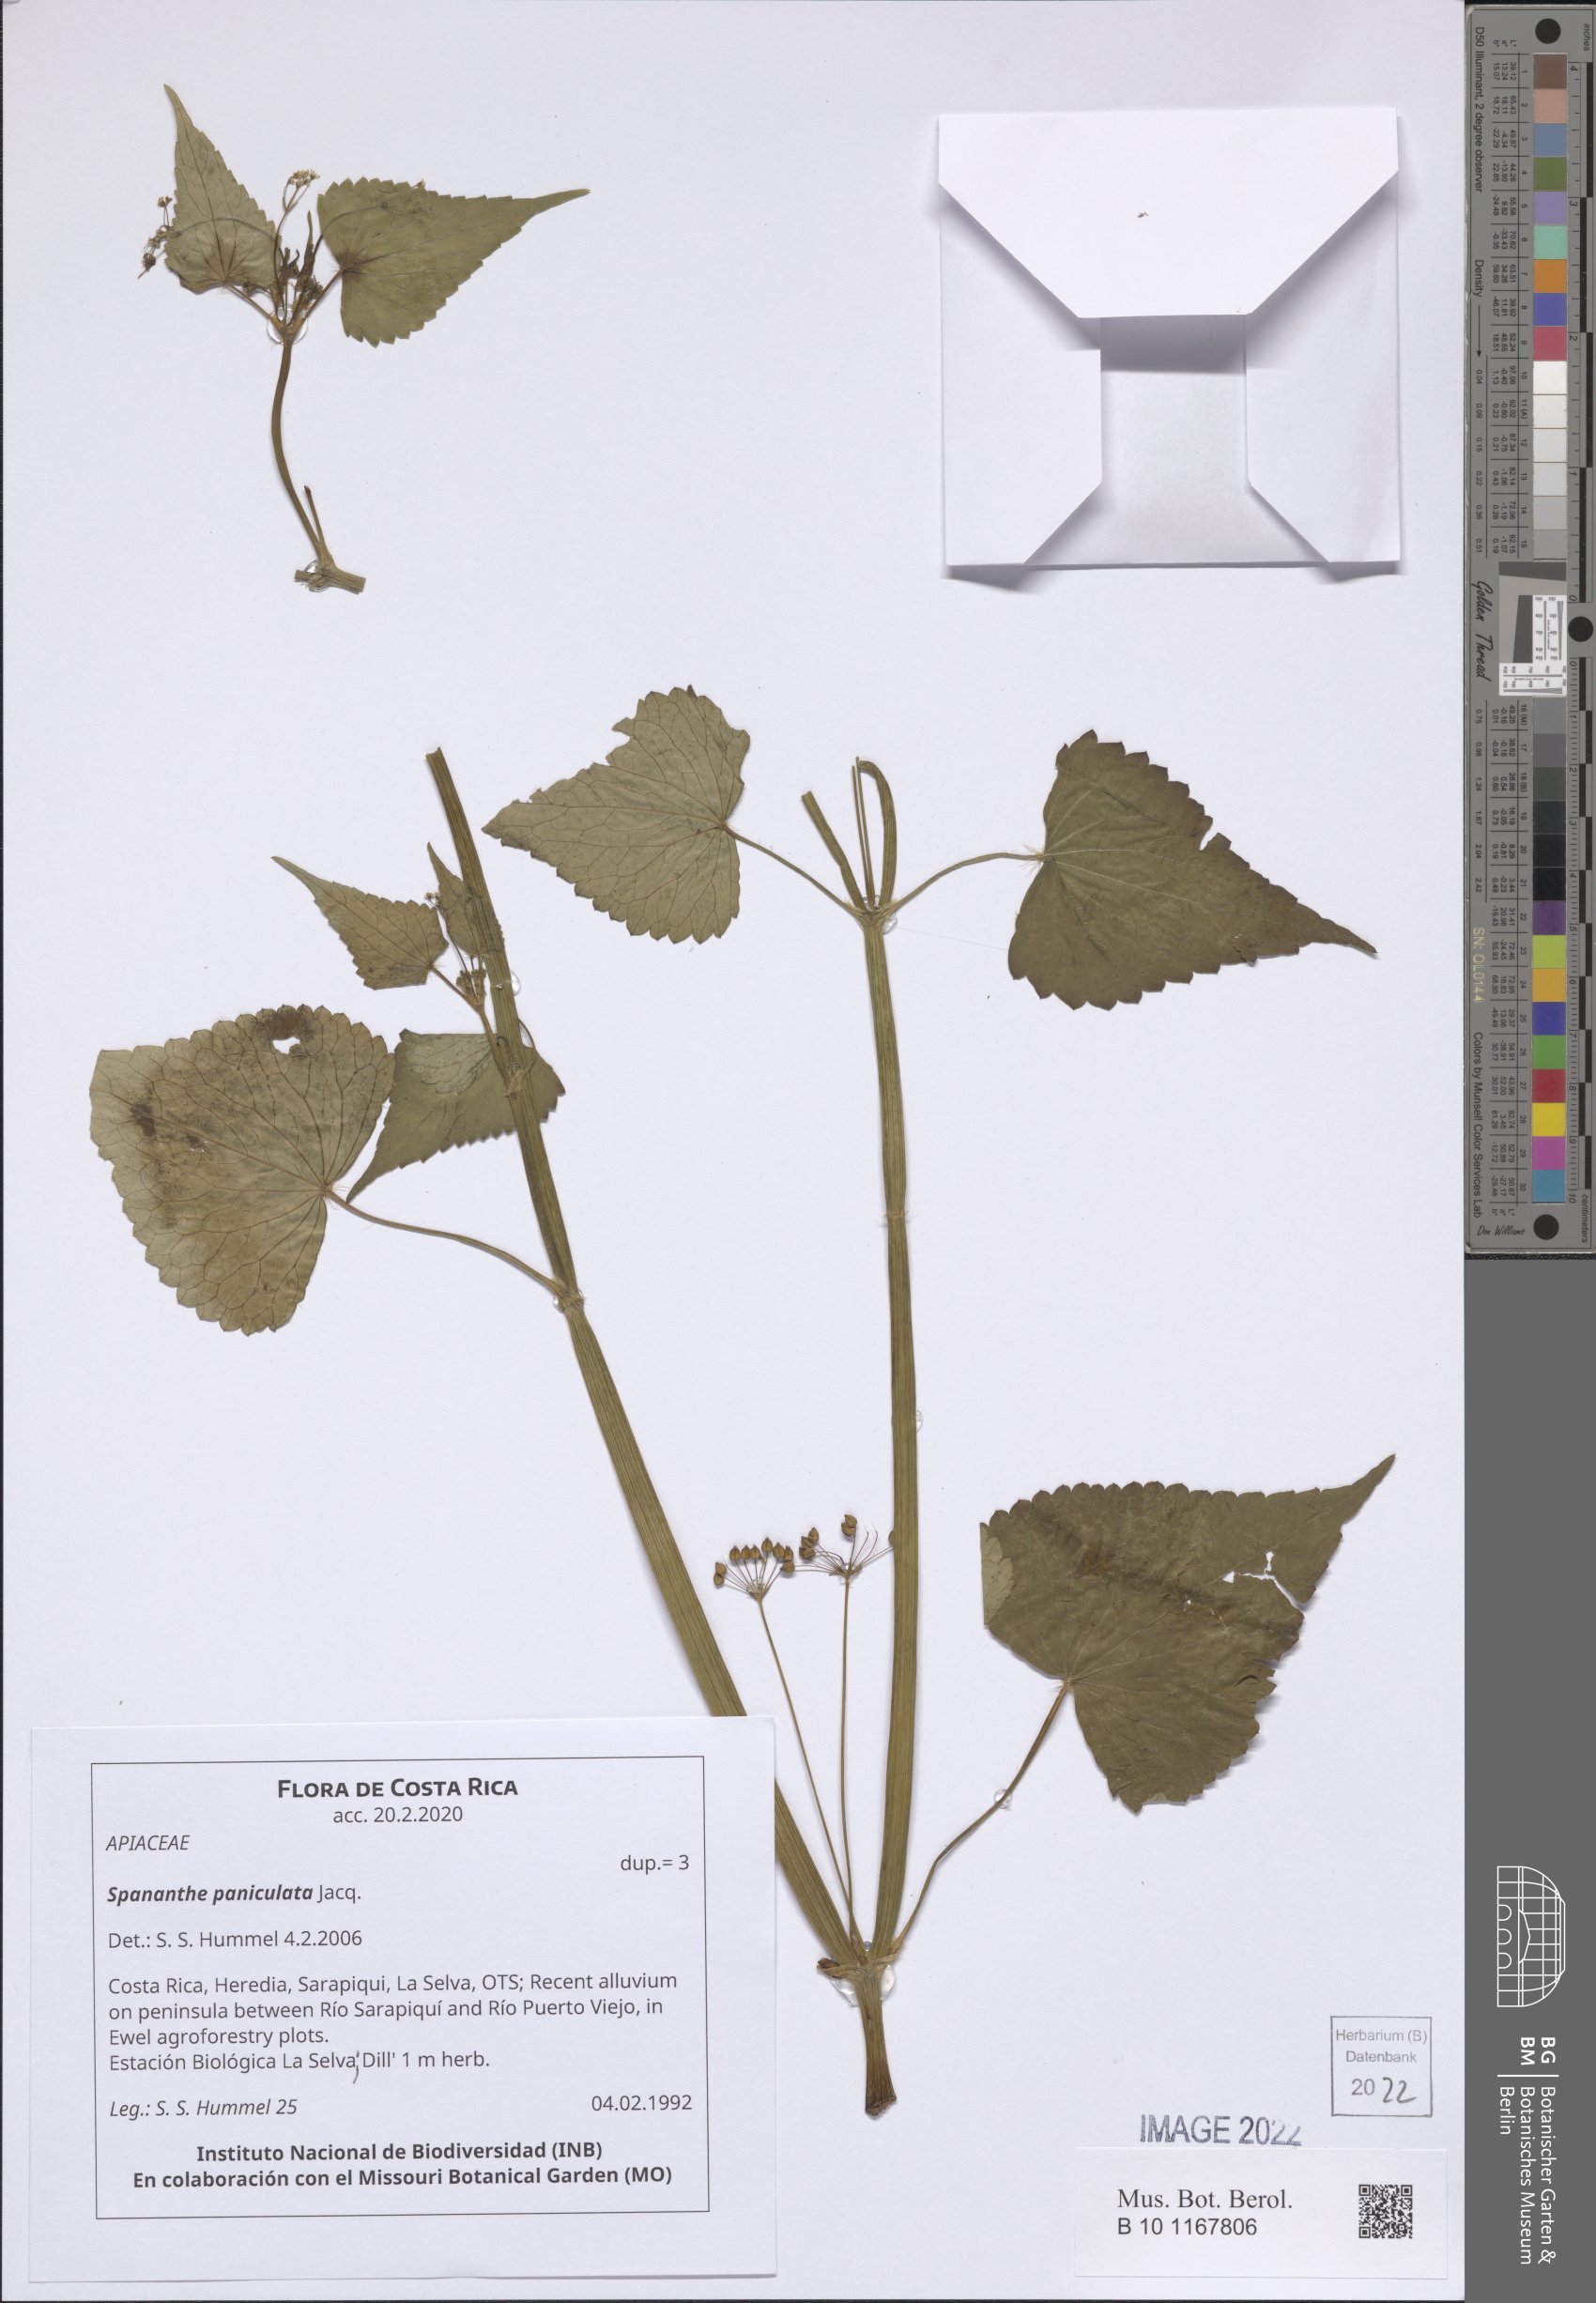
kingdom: Plantae
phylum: Tracheophyta
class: Magnoliopsida
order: Apiales
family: Apiaceae
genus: Spananthe
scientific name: Spananthe paniculata
